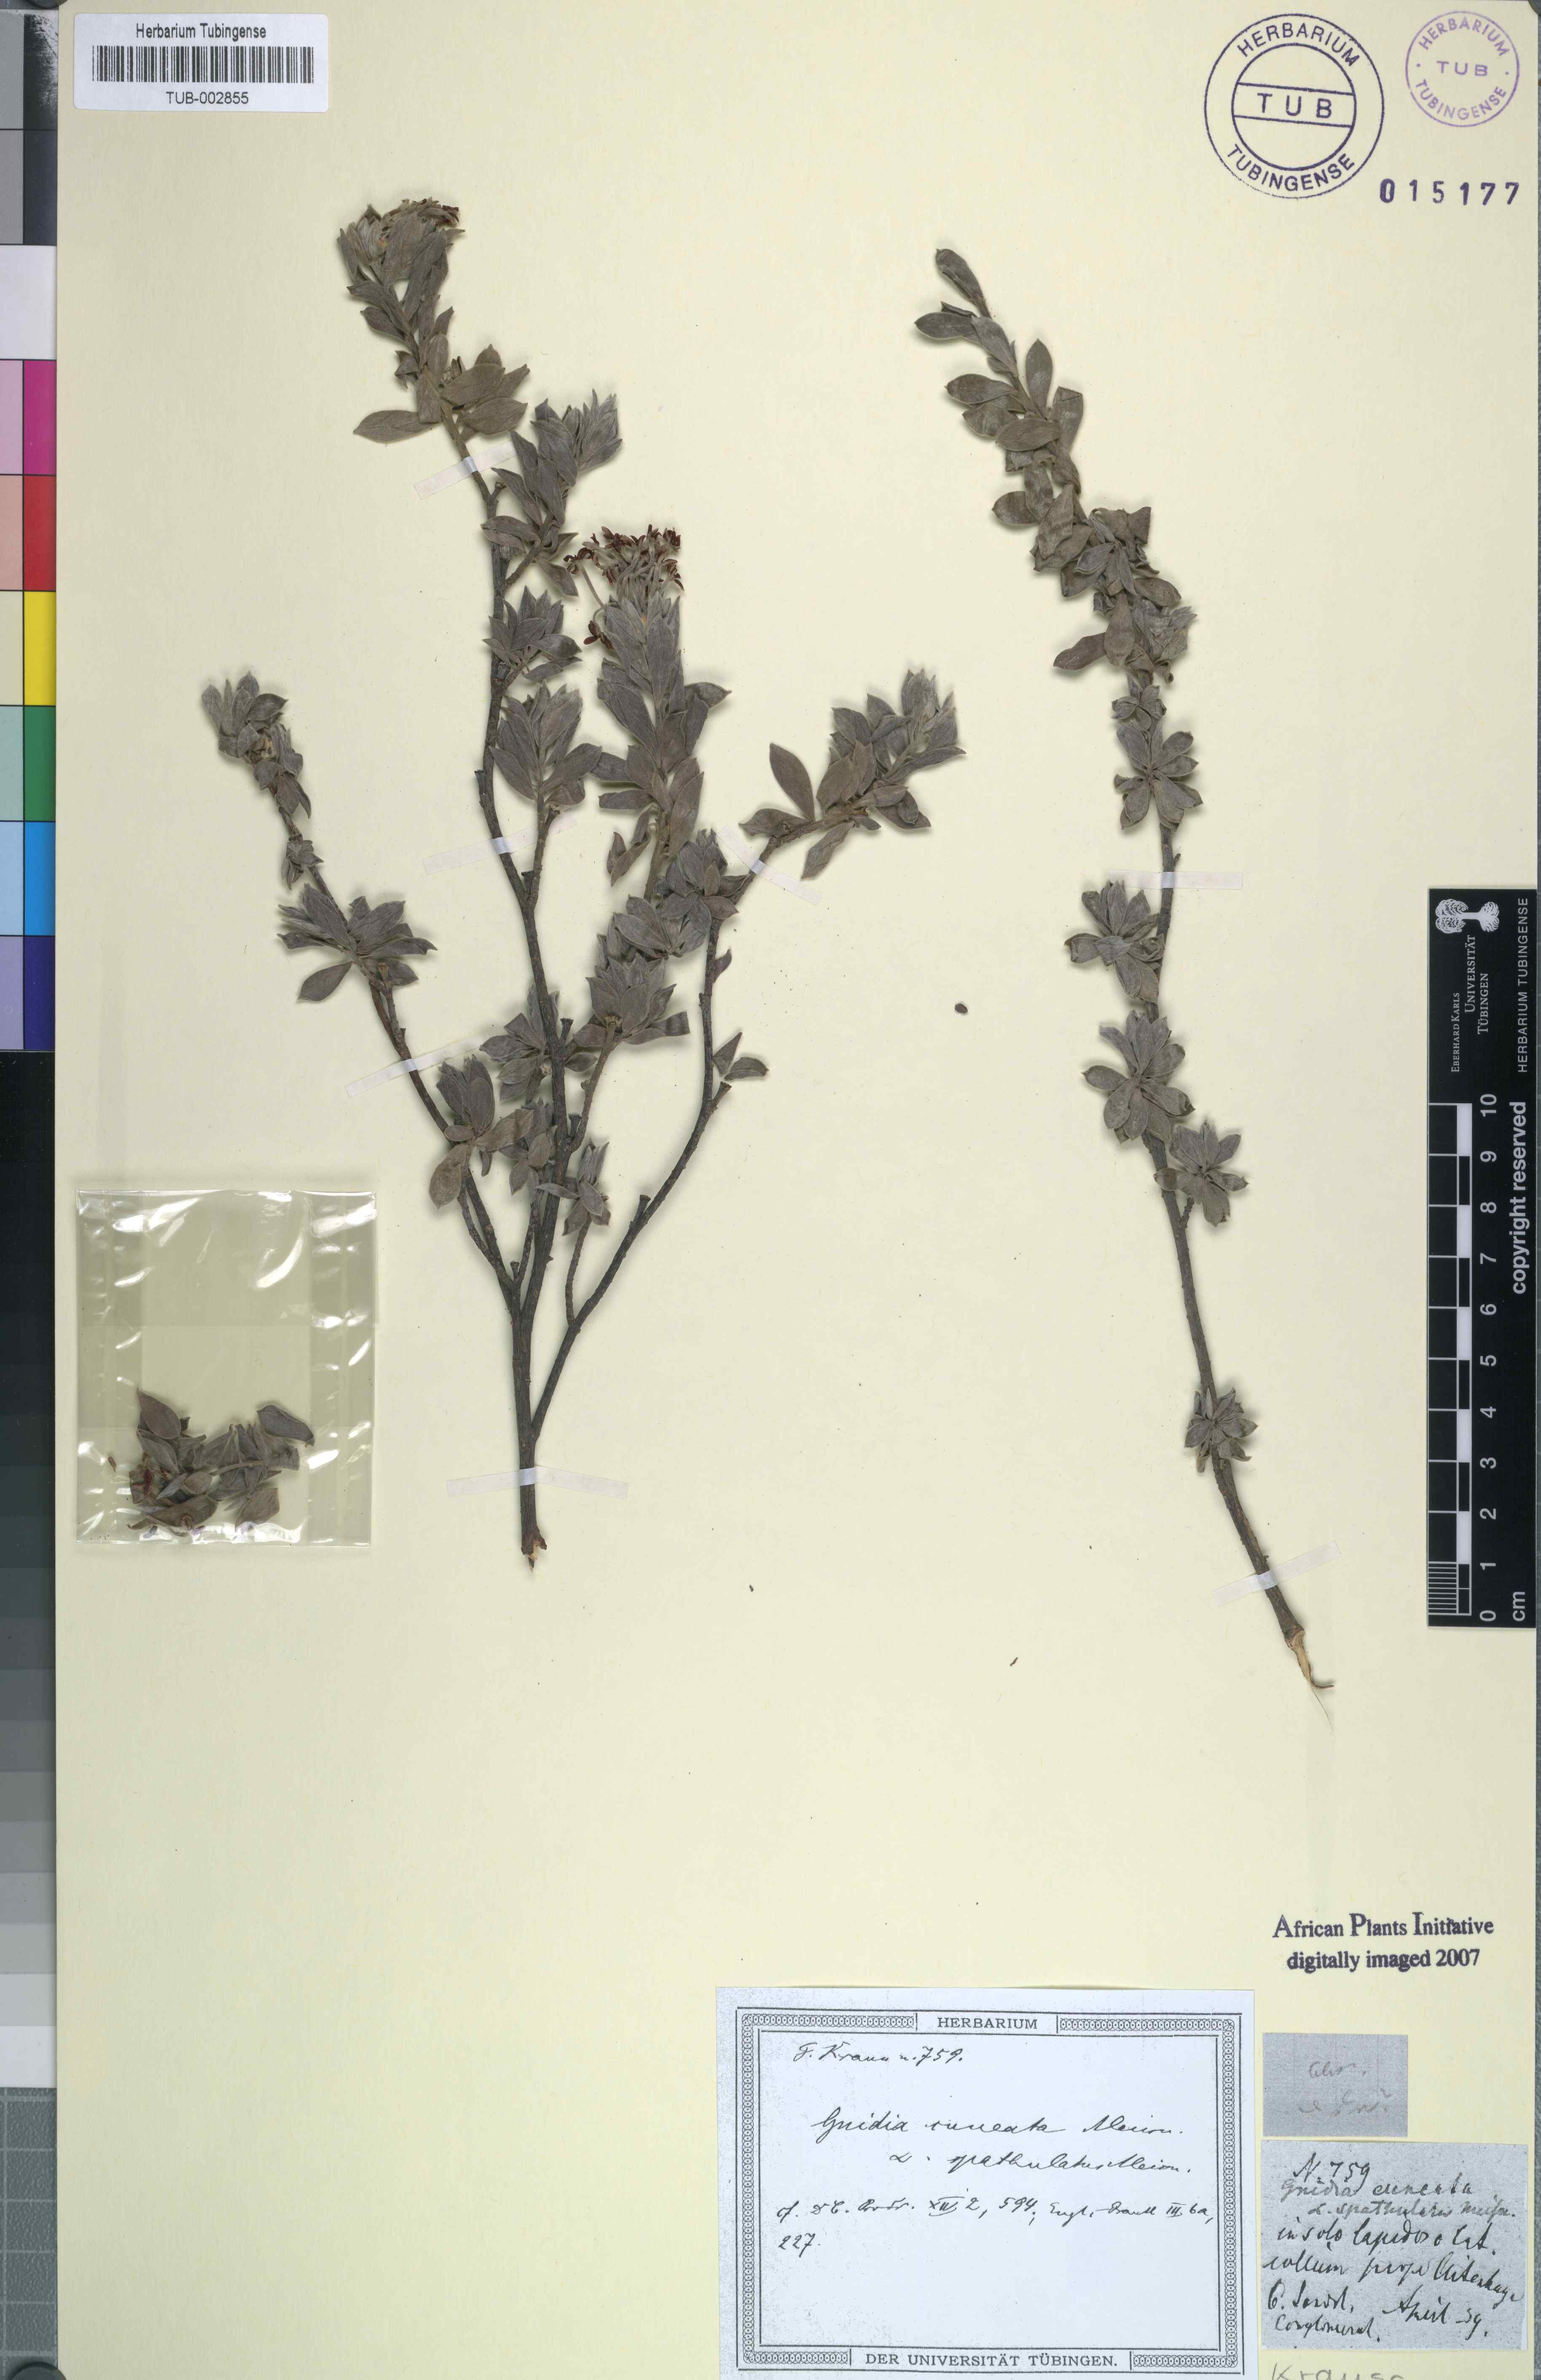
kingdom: Plantae
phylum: Tracheophyta
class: Magnoliopsida
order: Malvales
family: Thymelaeaceae
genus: Gnidia
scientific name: Gnidia cuneata
